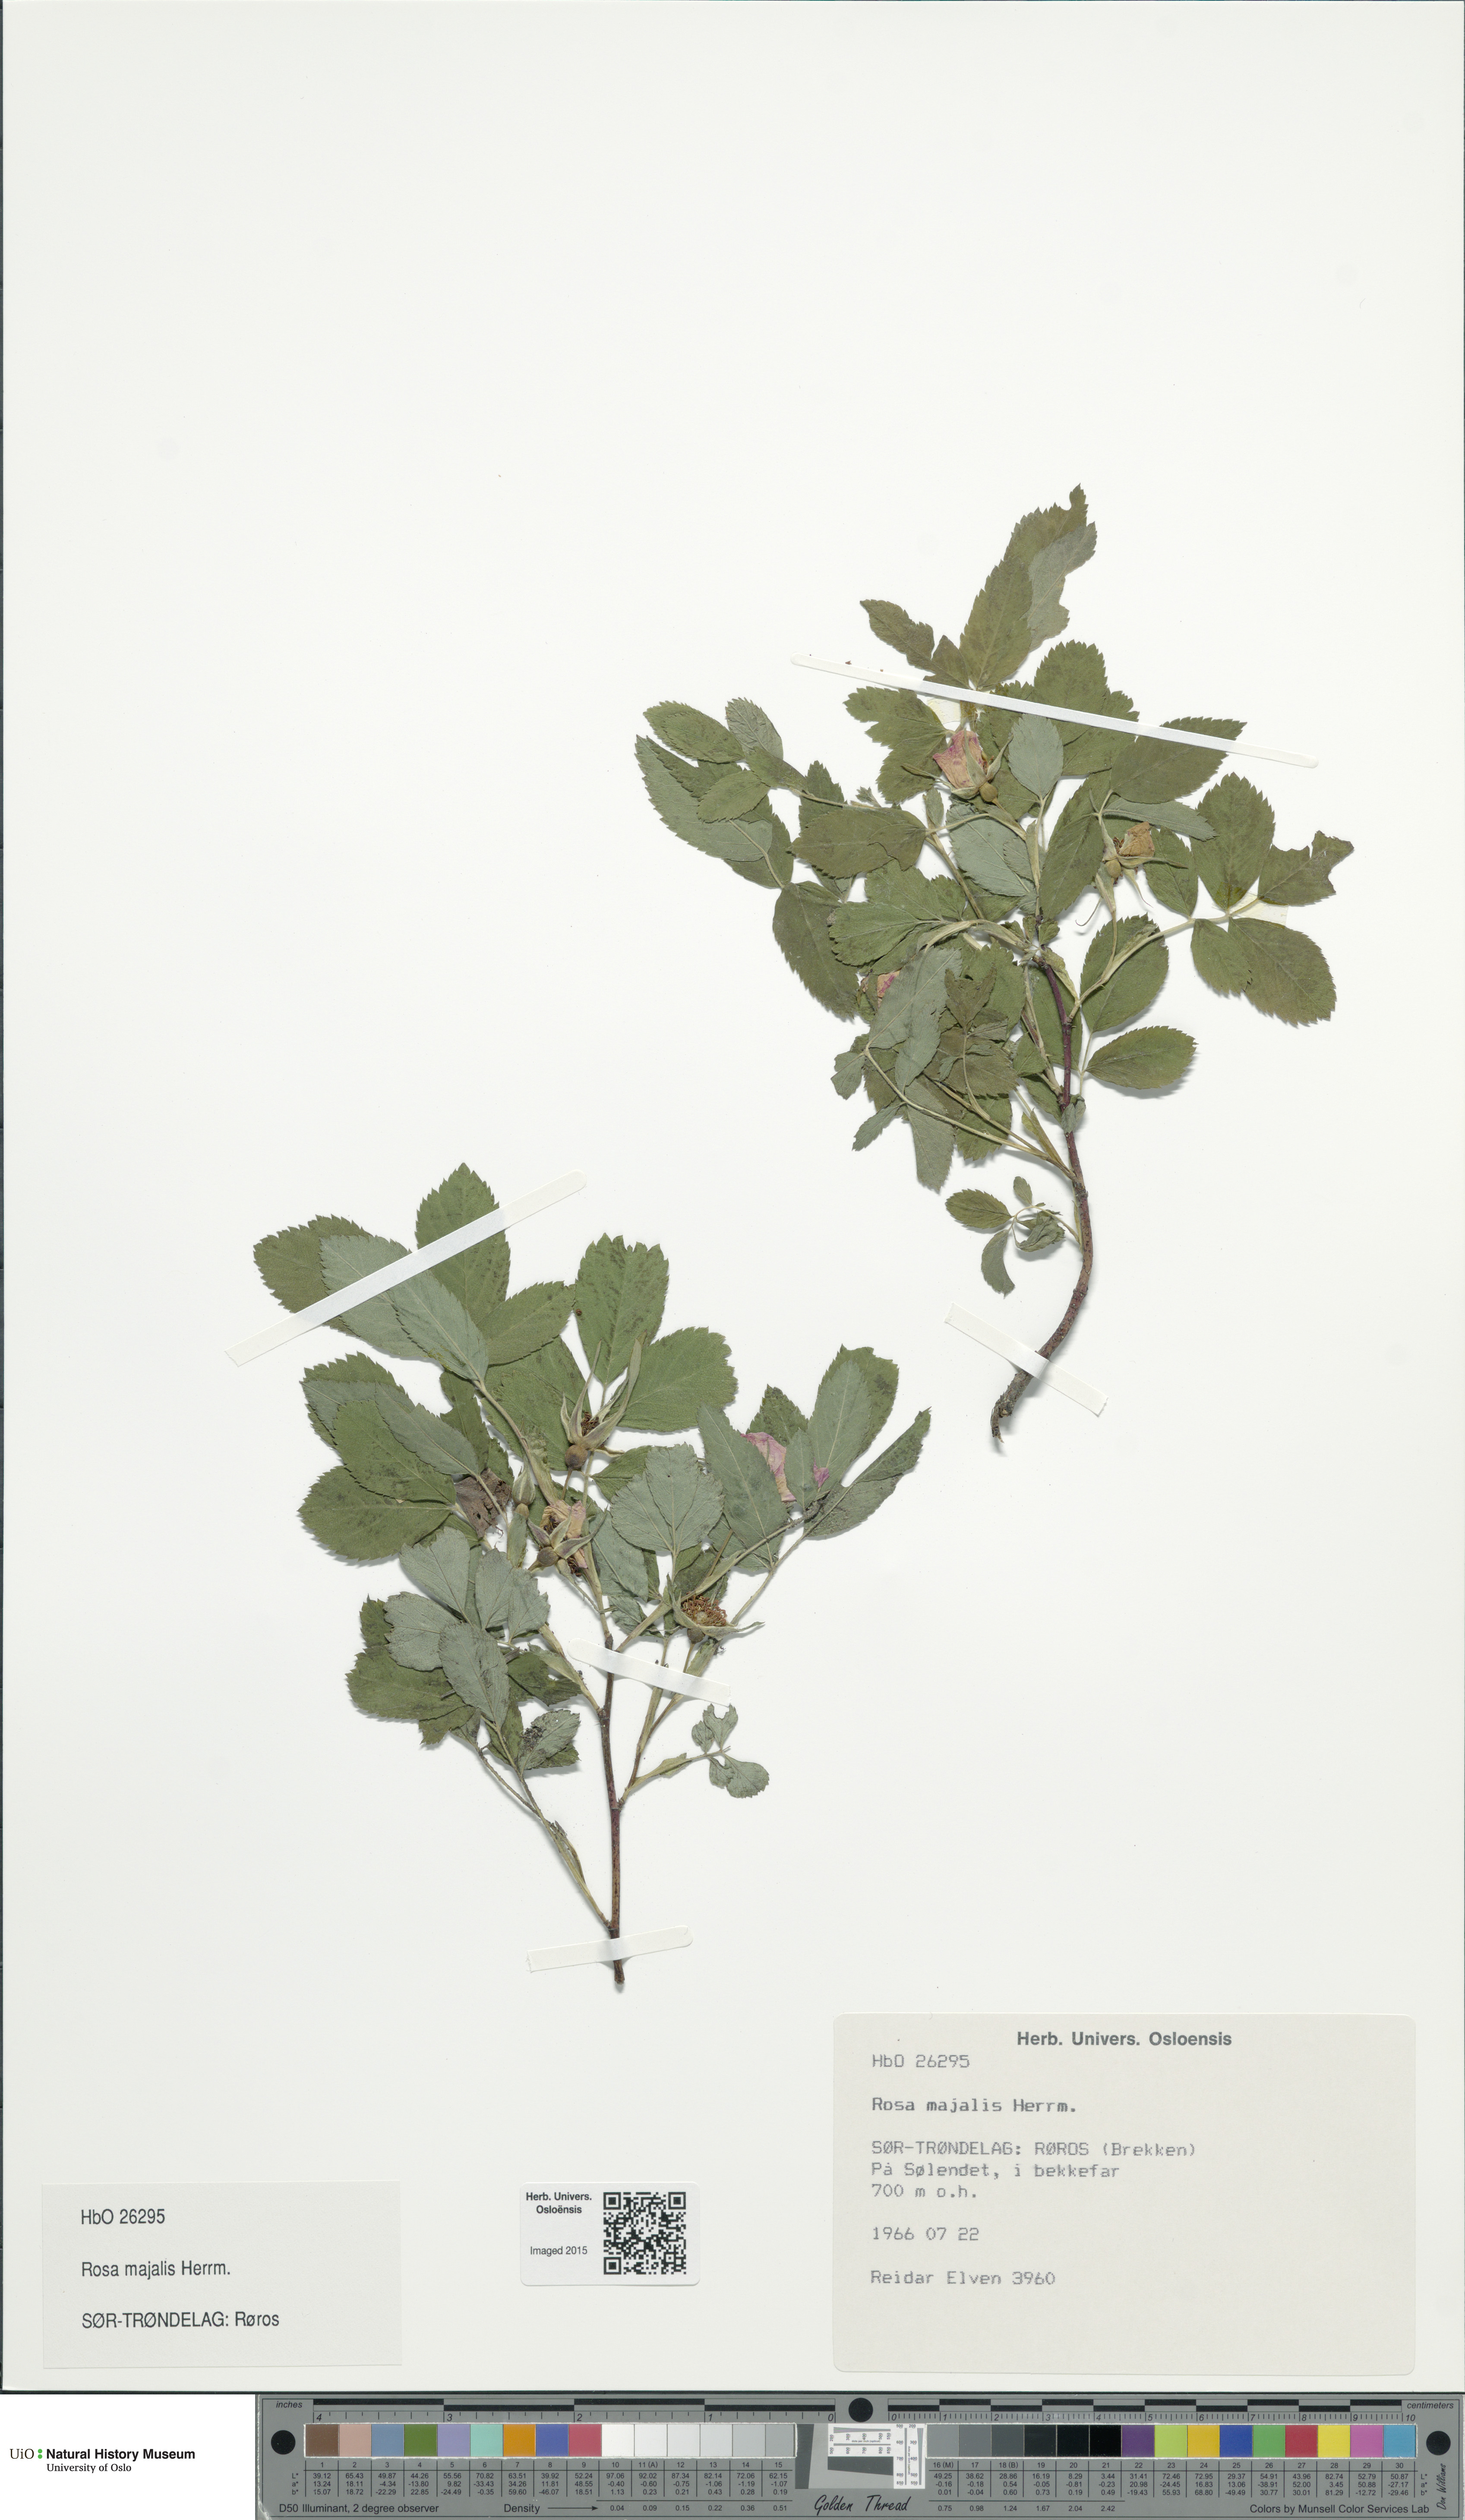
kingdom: Plantae
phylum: Tracheophyta
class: Magnoliopsida
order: Rosales
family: Rosaceae
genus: Rosa
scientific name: Rosa majalis
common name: Cinnamon rose
